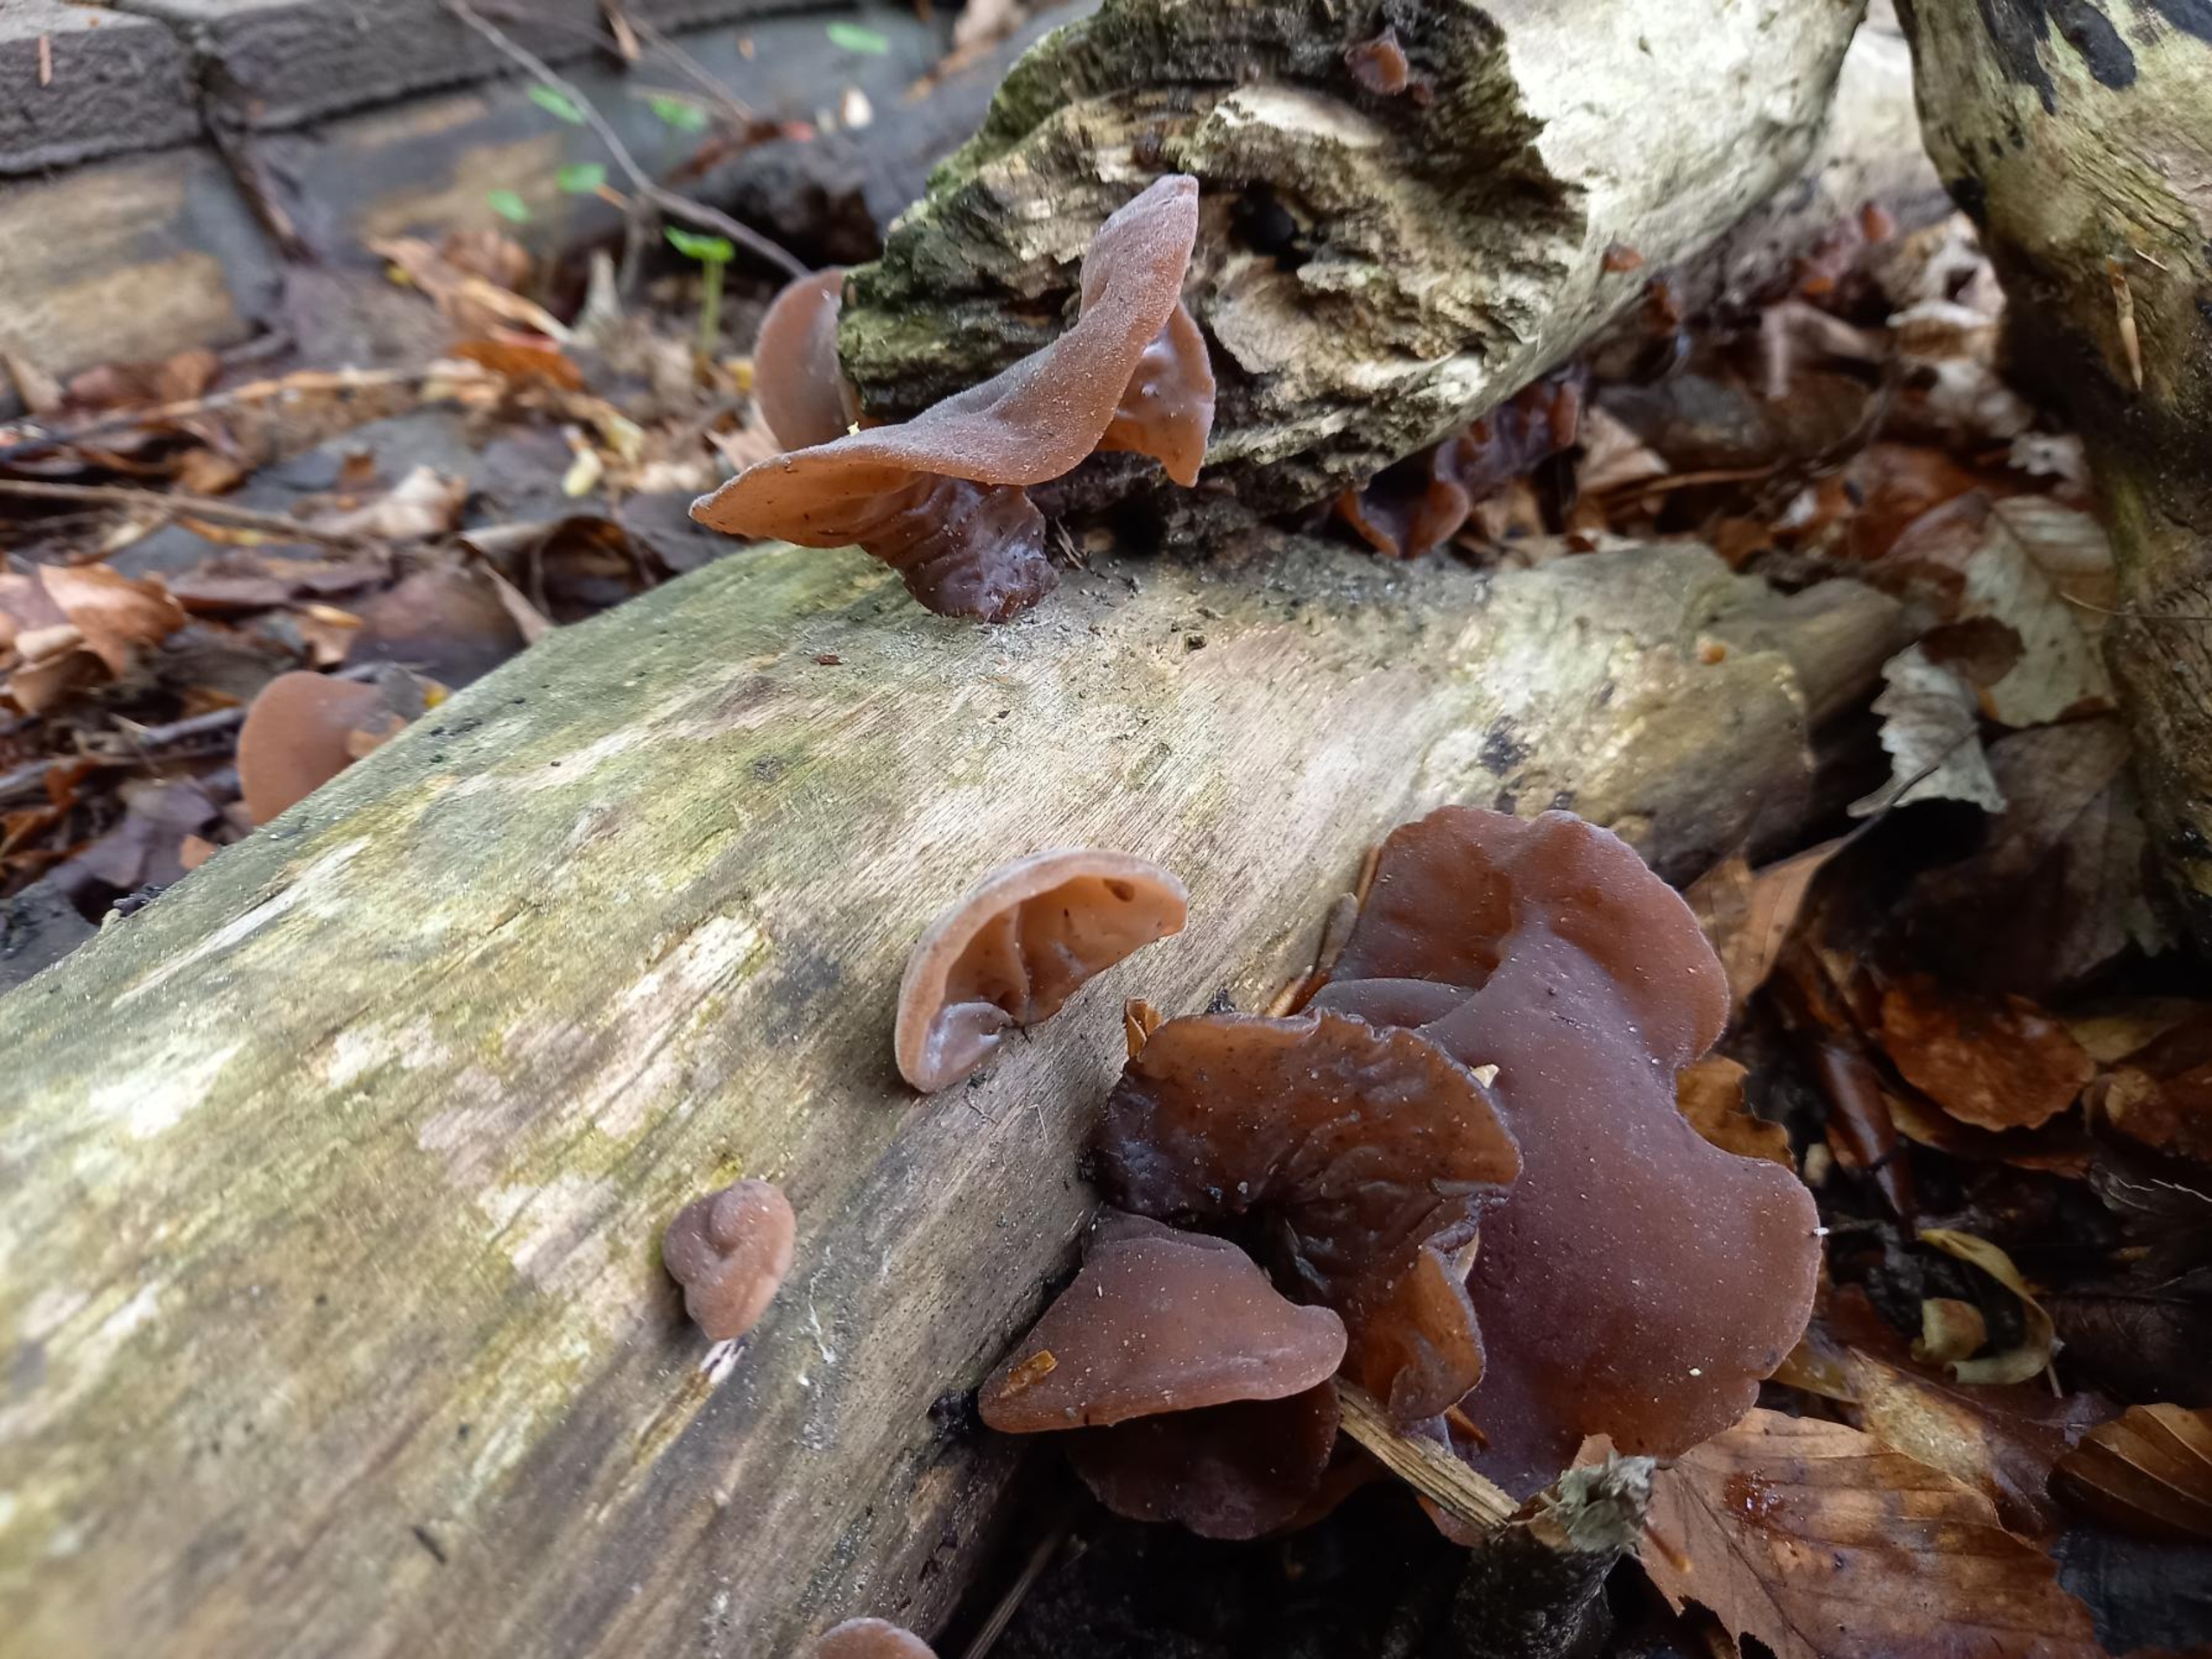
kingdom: Fungi
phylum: Basidiomycota
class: Agaricomycetes
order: Auriculariales
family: Auriculariaceae
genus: Auricularia
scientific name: Auricularia auricula-judae
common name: Almindelig judasøre
